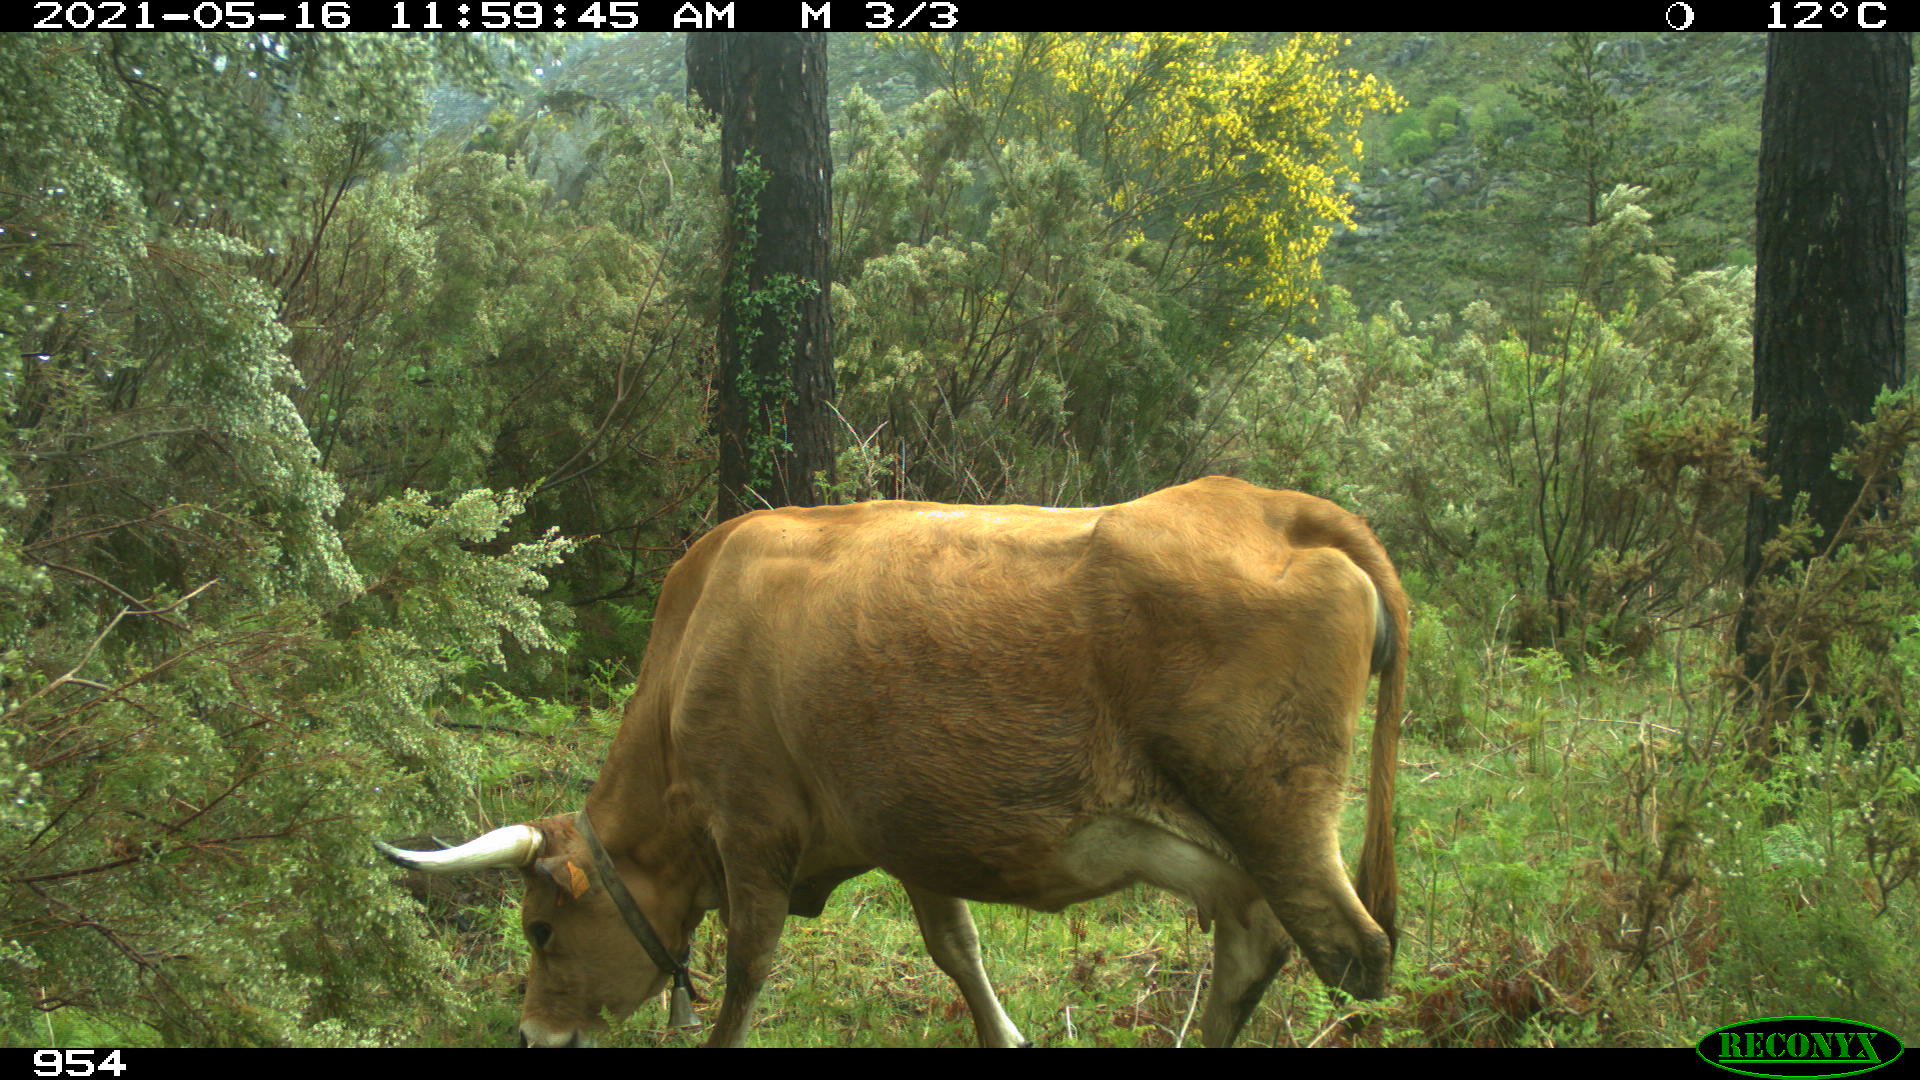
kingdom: Animalia
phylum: Chordata
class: Mammalia
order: Artiodactyla
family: Bovidae
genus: Bos
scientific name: Bos taurus
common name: Domesticated cattle
